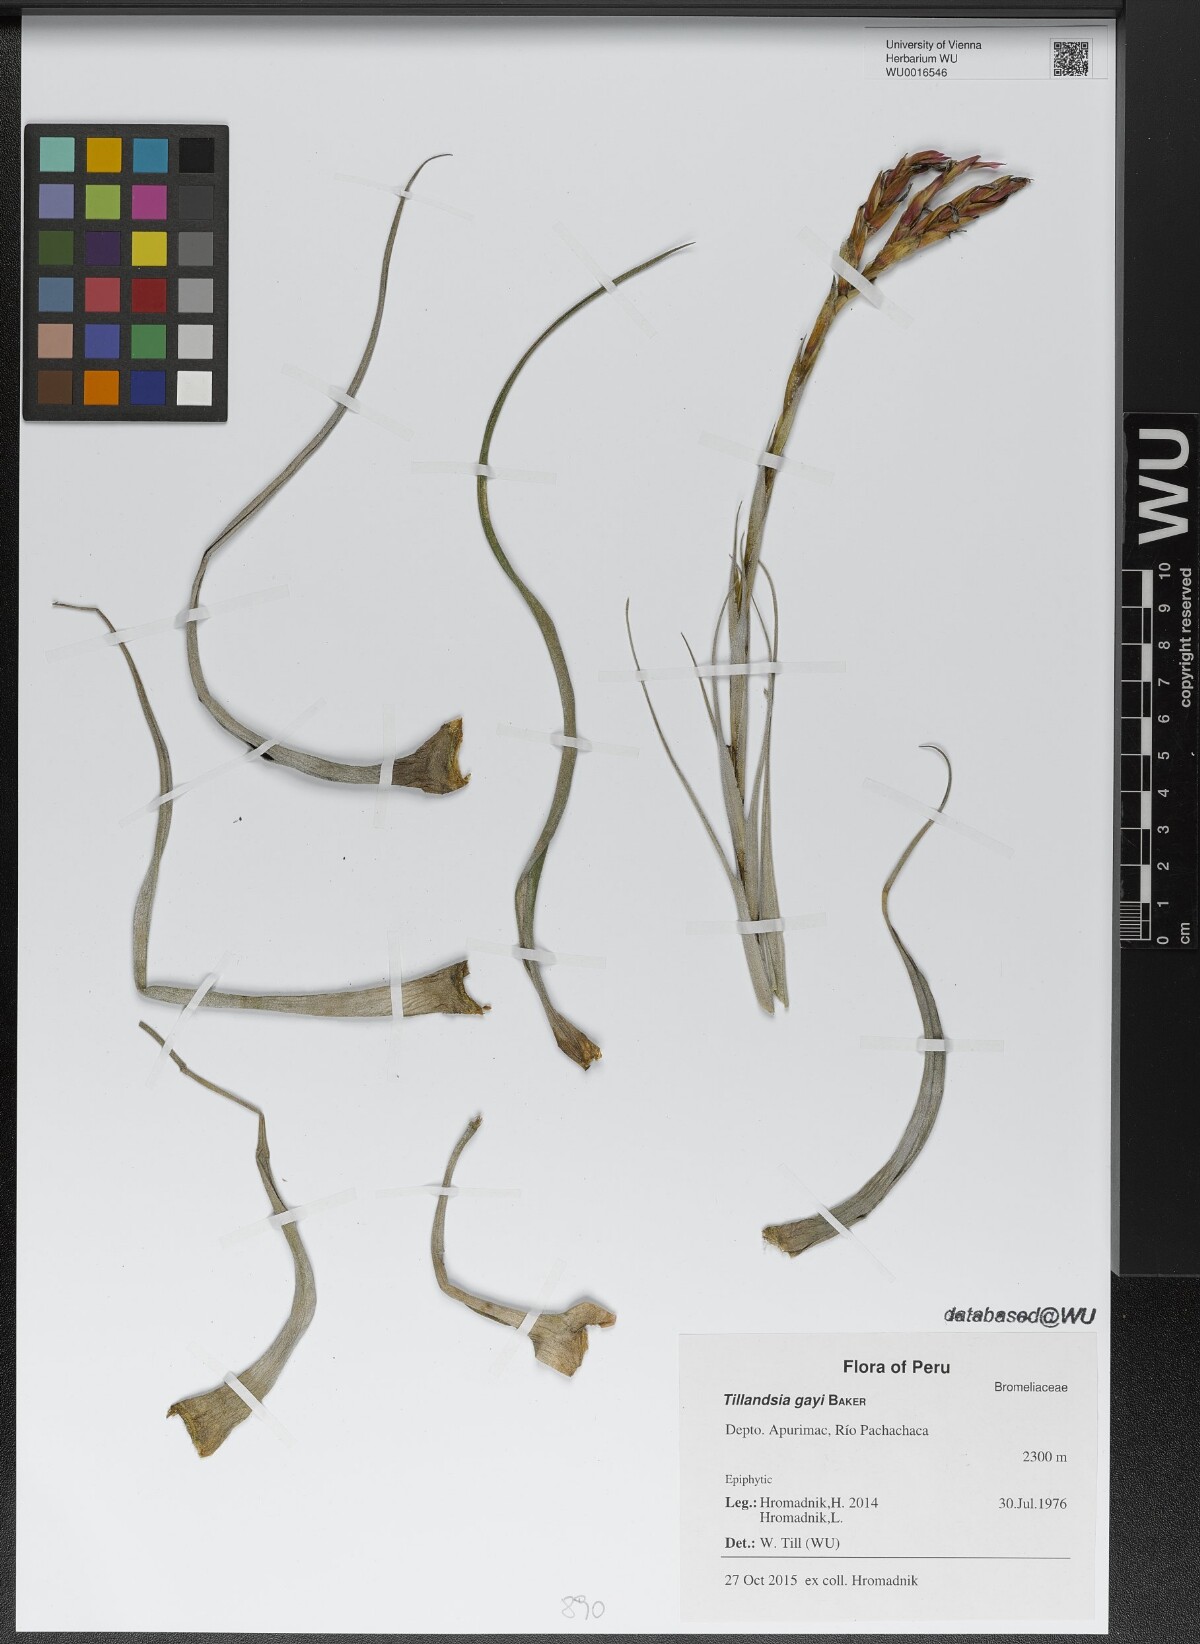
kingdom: Plantae
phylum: Tracheophyta
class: Liliopsida
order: Poales
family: Bromeliaceae
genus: Tillandsia
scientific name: Tillandsia latifolia
